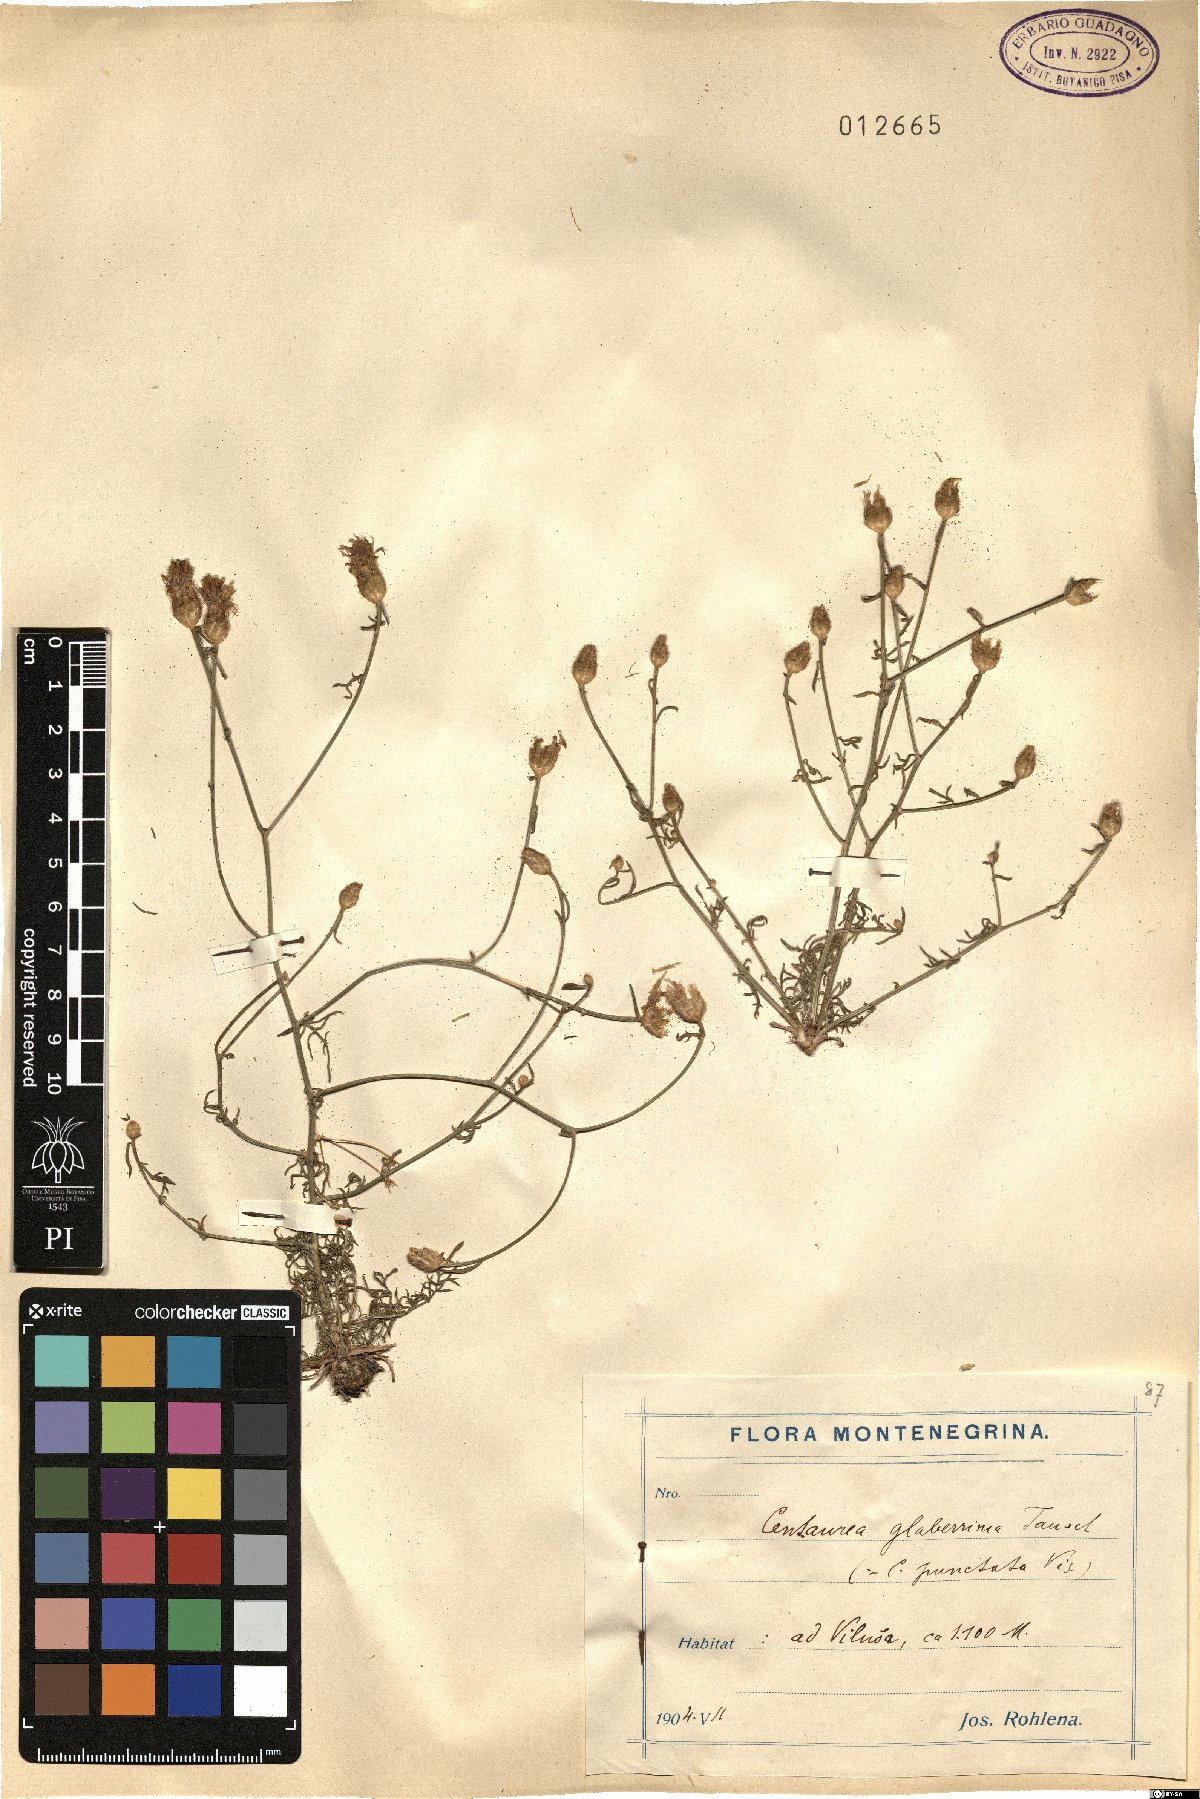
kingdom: Plantae
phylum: Tracheophyta
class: Magnoliopsida
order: Asterales
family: Asteraceae
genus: Centaurea
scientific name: Centaurea glaberrima
